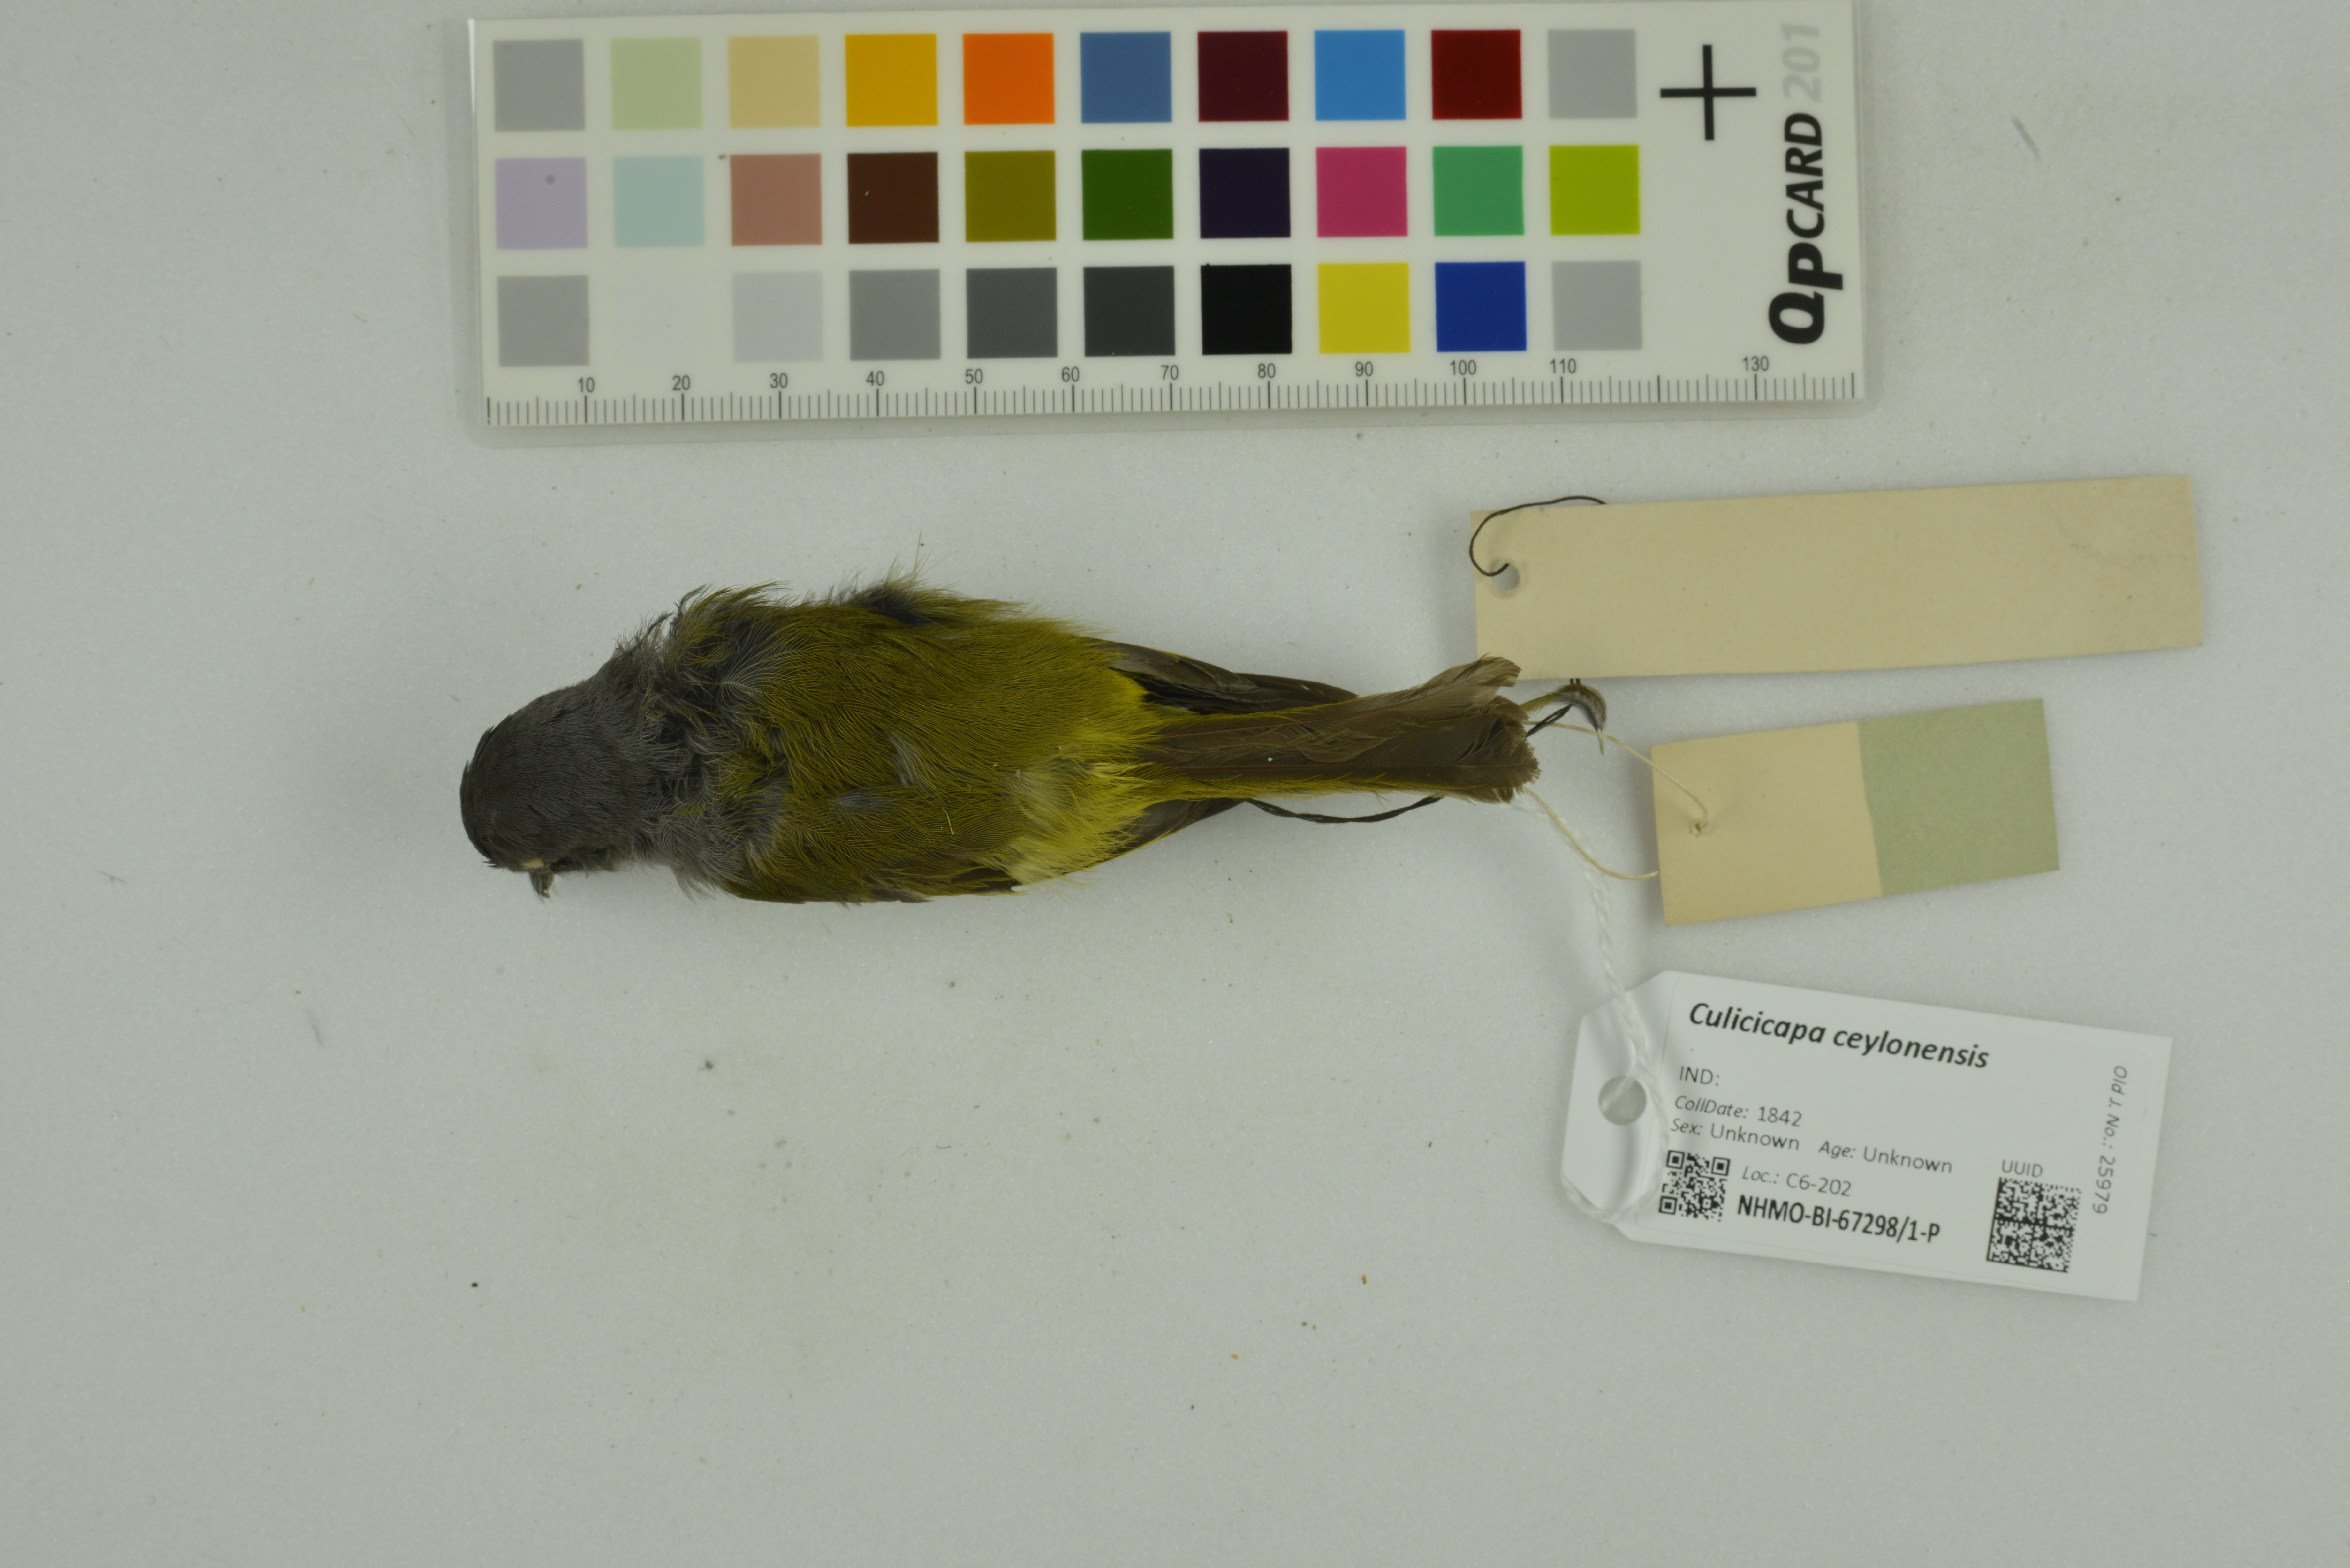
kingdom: Animalia
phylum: Chordata
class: Aves
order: Passeriformes
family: Stenostiridae
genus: Culicicapa
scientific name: Culicicapa ceylonensis
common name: Grey-headed canary-flycatcher
